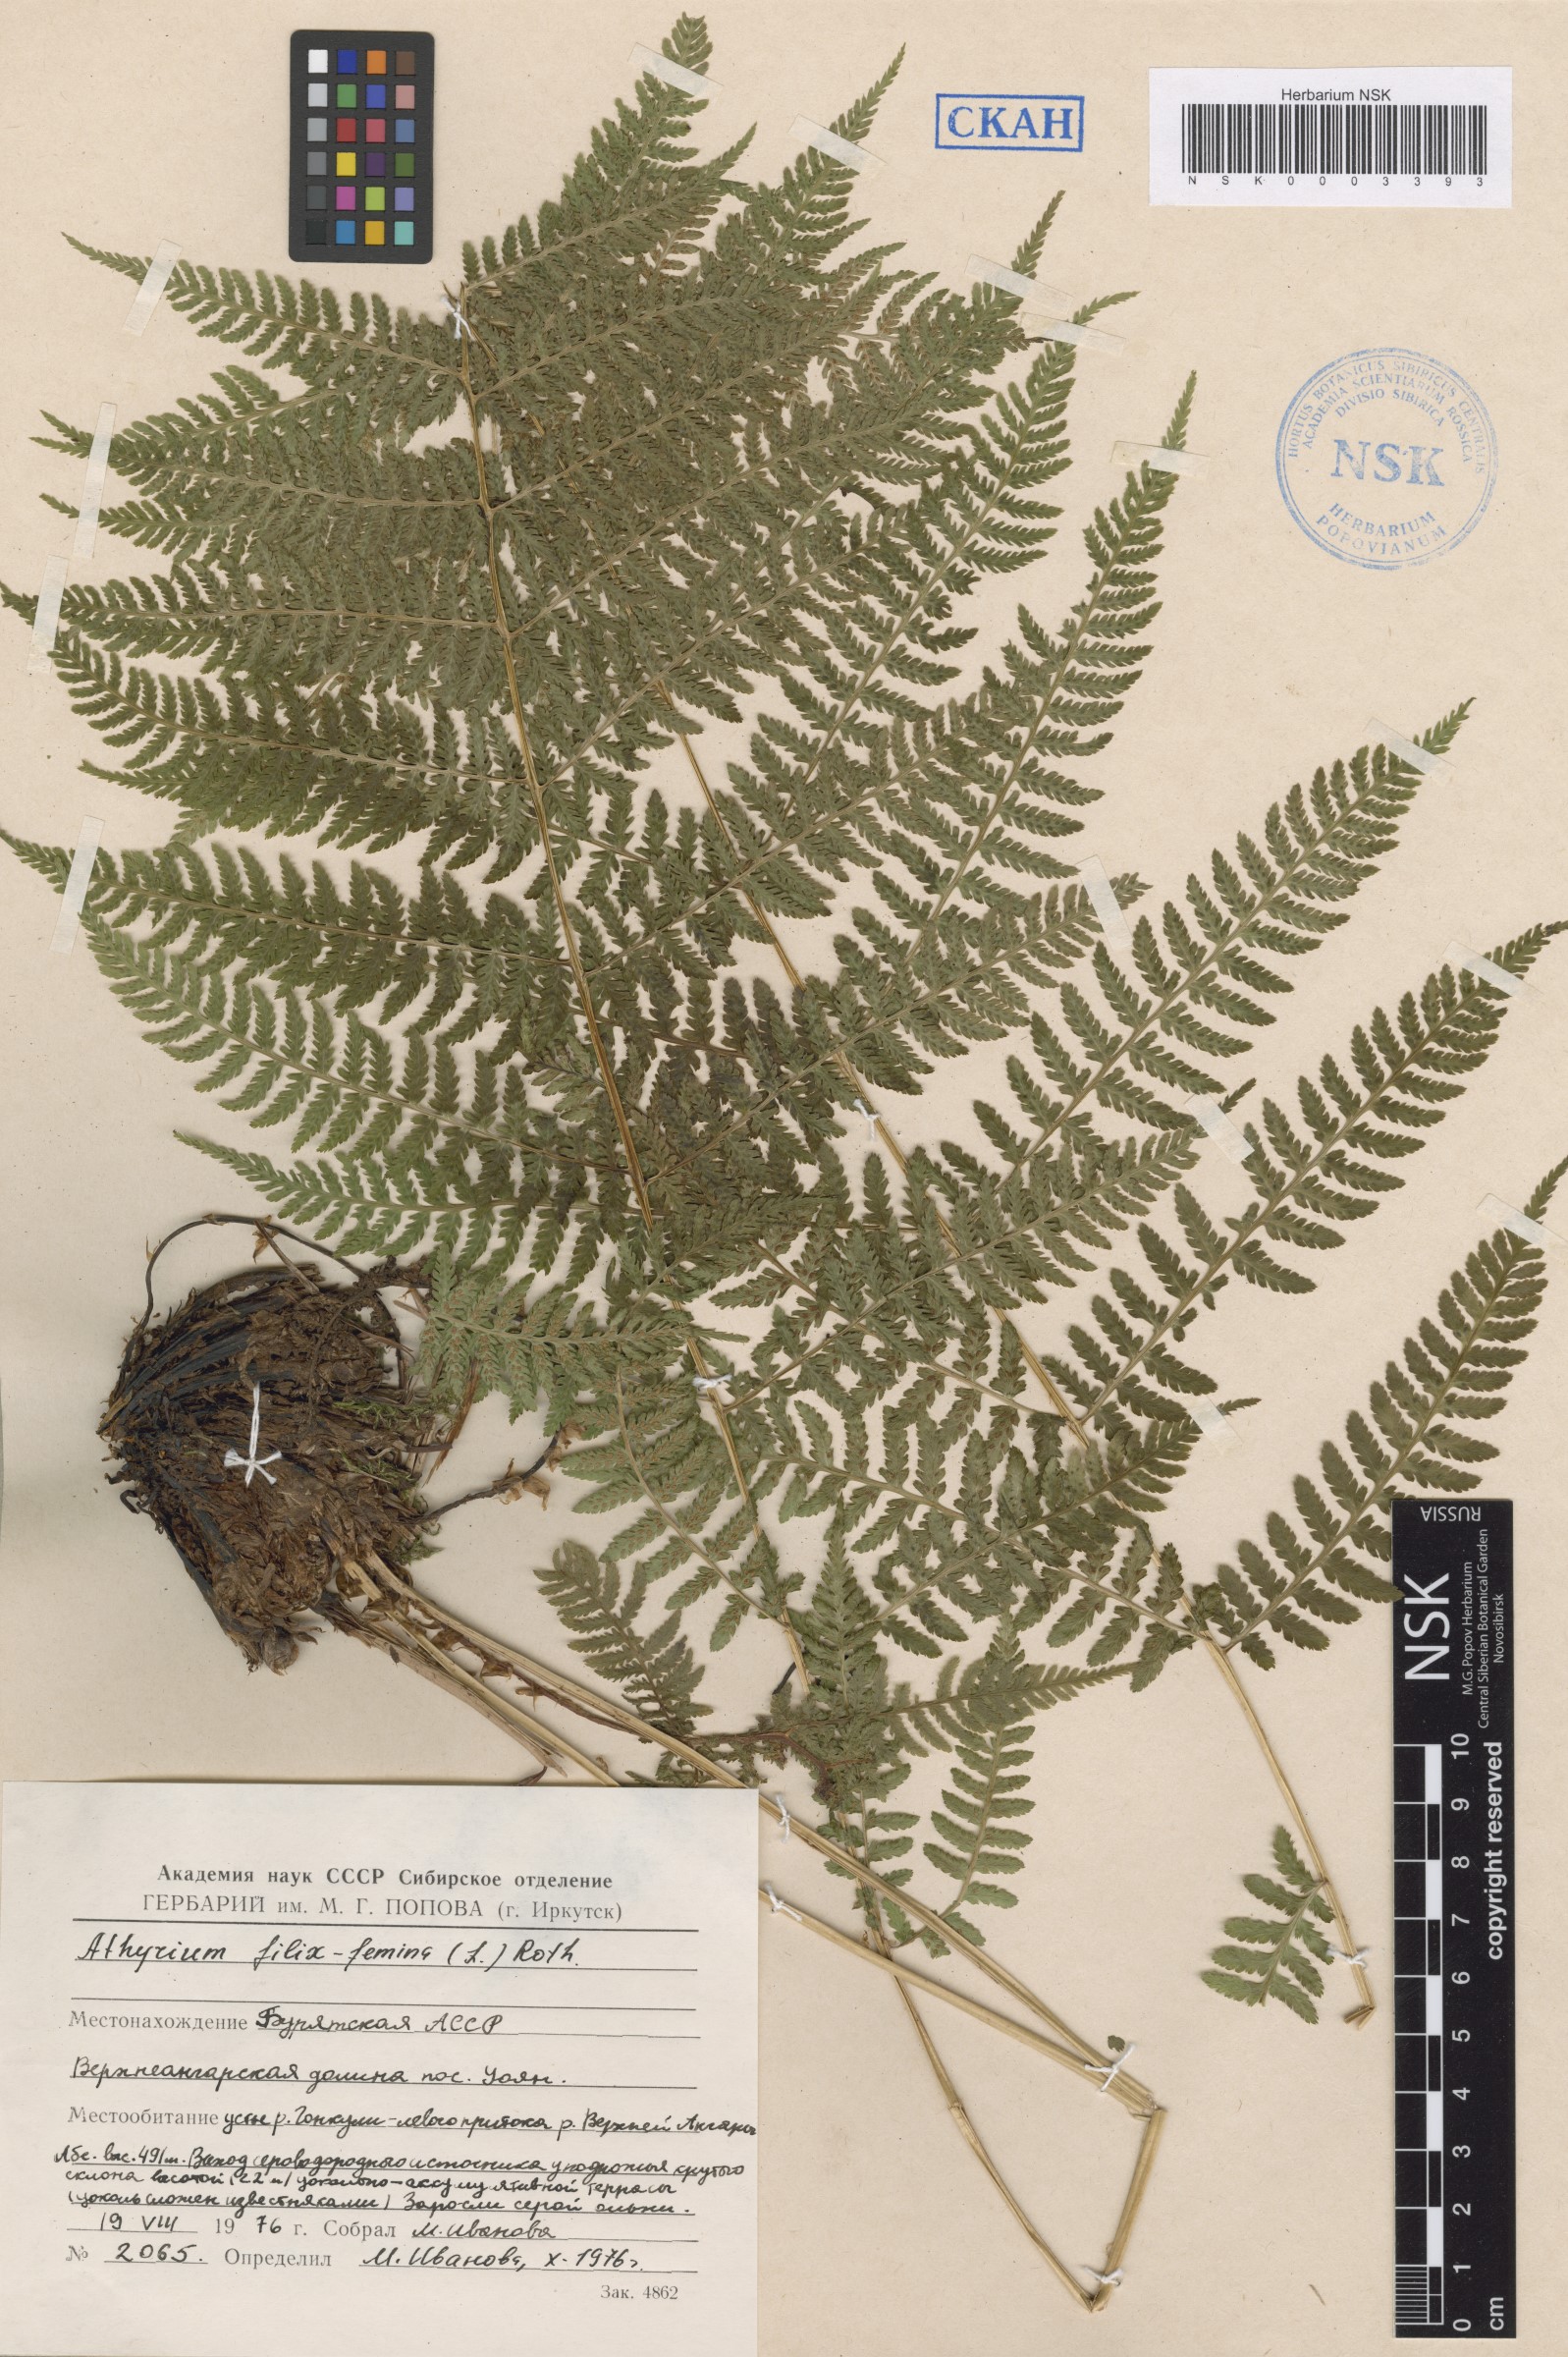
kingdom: Plantae
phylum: Tracheophyta
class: Polypodiopsida
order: Polypodiales
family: Athyriaceae
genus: Athyrium
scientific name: Athyrium filix-femina
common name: Lady fern
